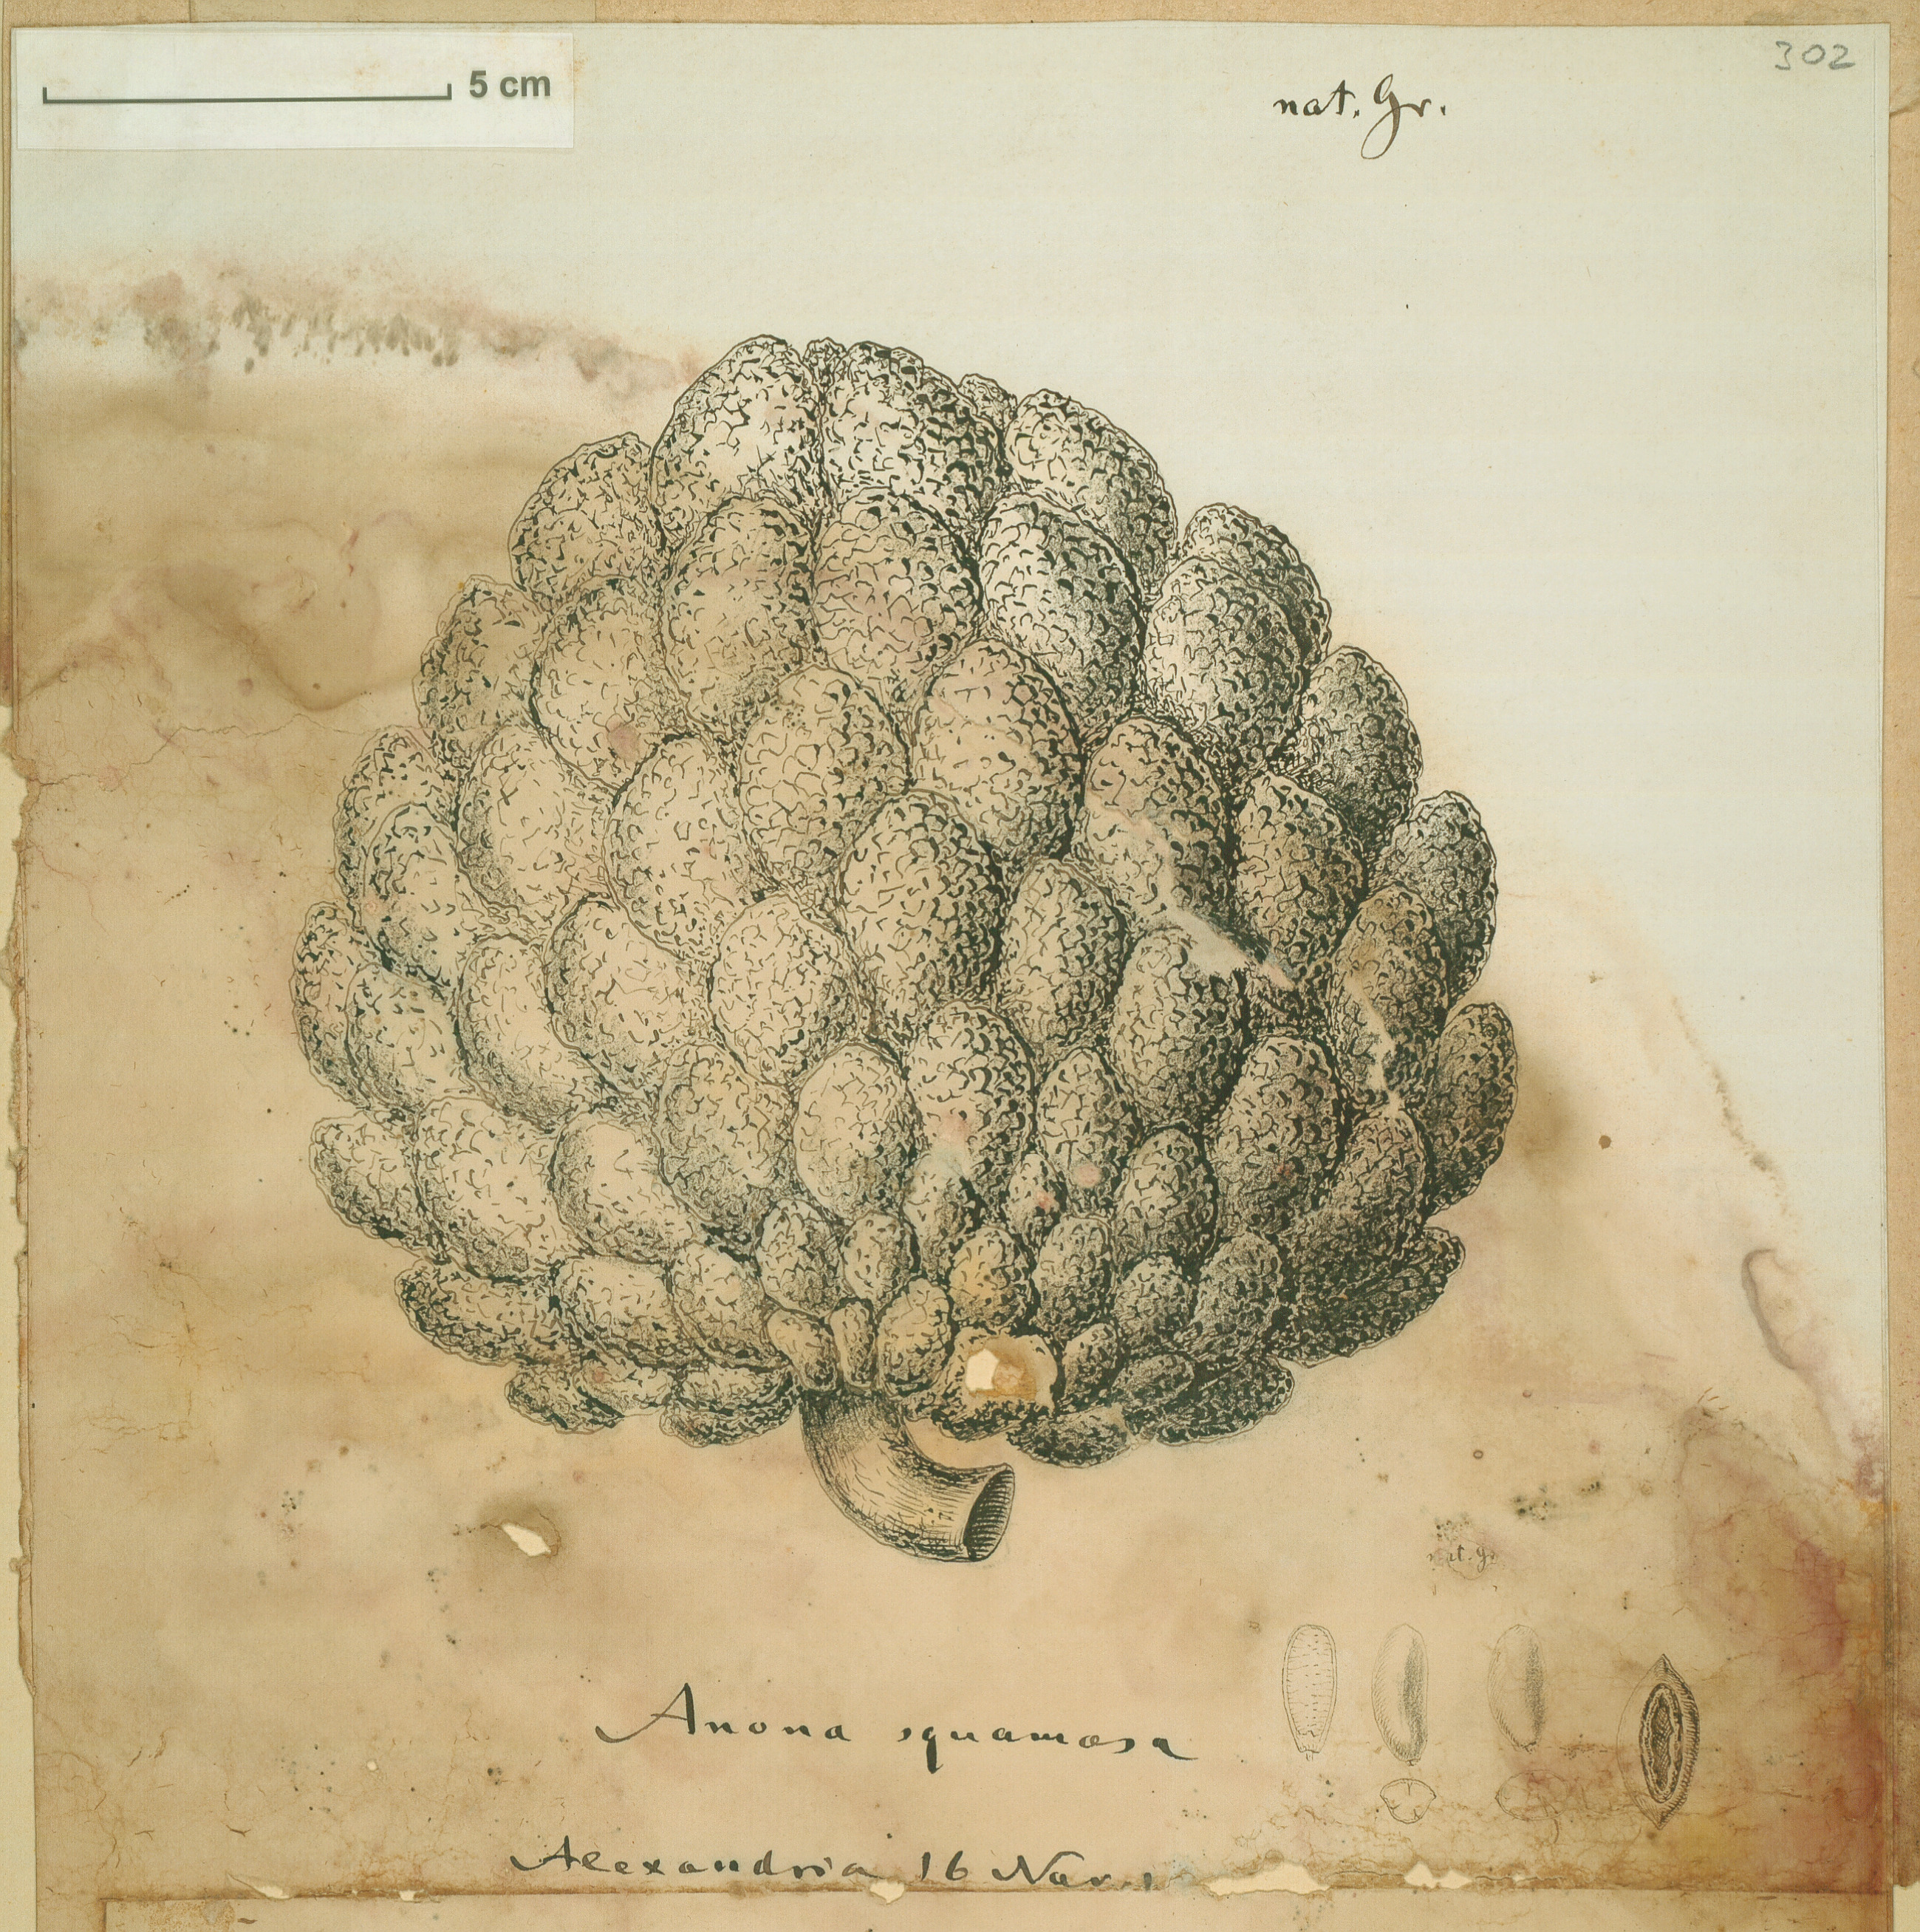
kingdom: Plantae
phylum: Tracheophyta
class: Magnoliopsida
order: Magnoliales
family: Annonaceae
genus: Annona
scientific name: Annona squamosa
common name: Custard-apple
